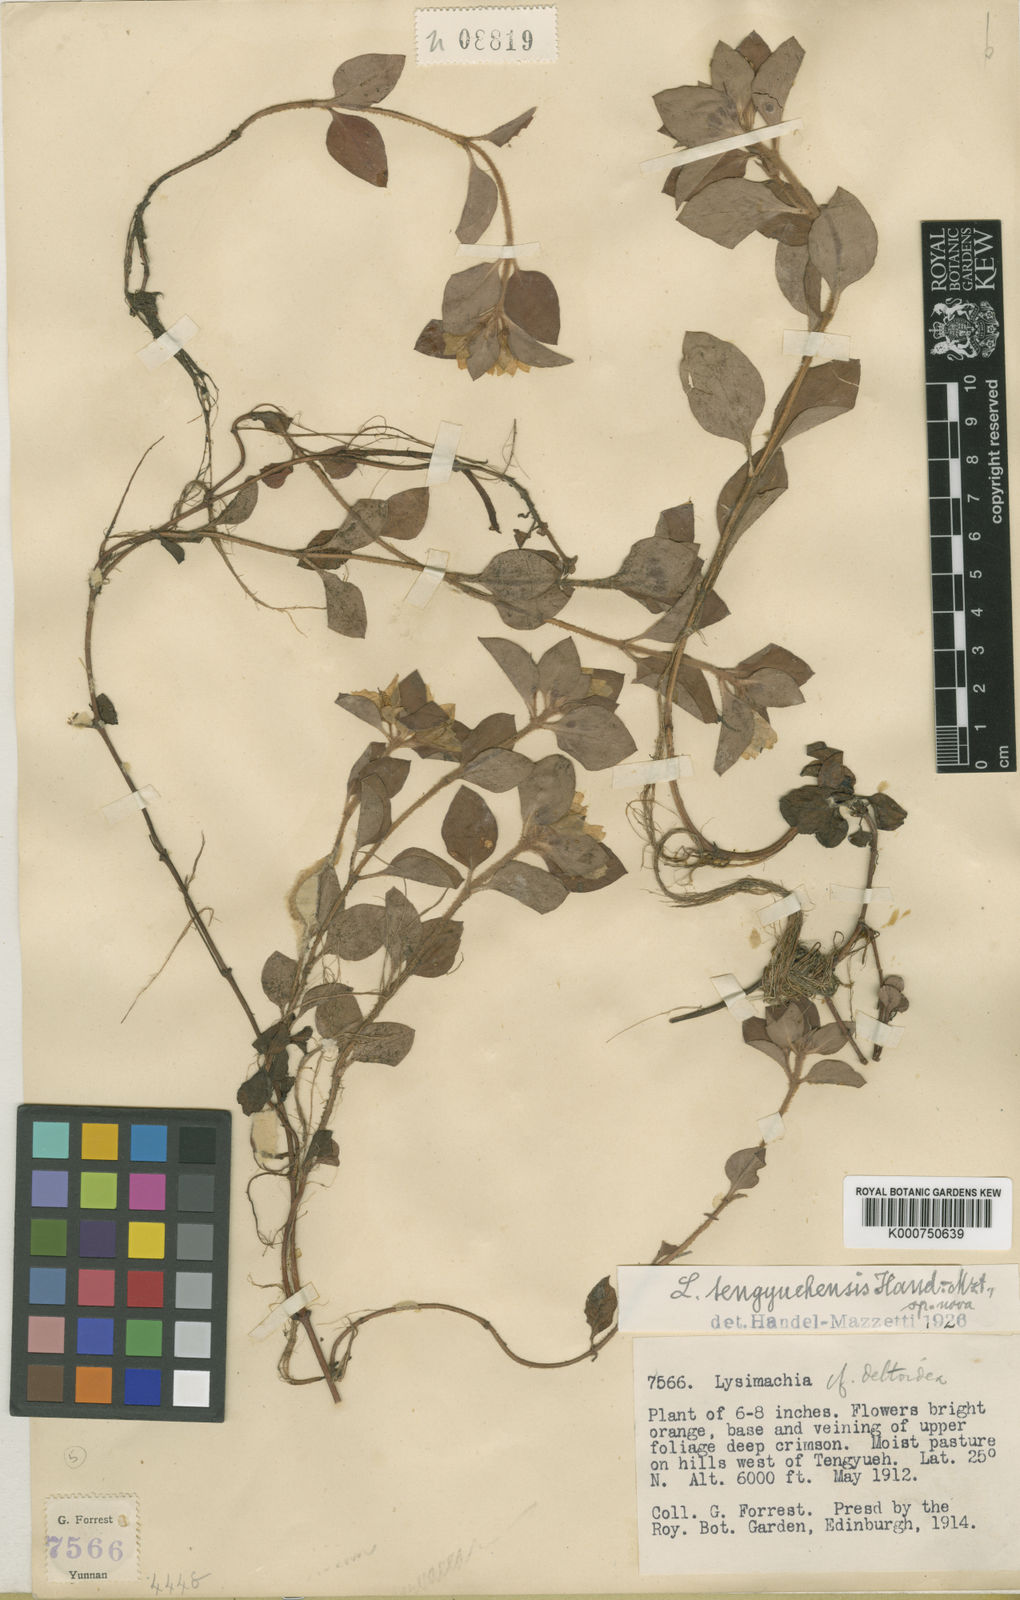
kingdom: Plantae
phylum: Tracheophyta
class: Magnoliopsida
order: Ericales
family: Primulaceae
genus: Lysimachia
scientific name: Lysimachia tengyuehensis
